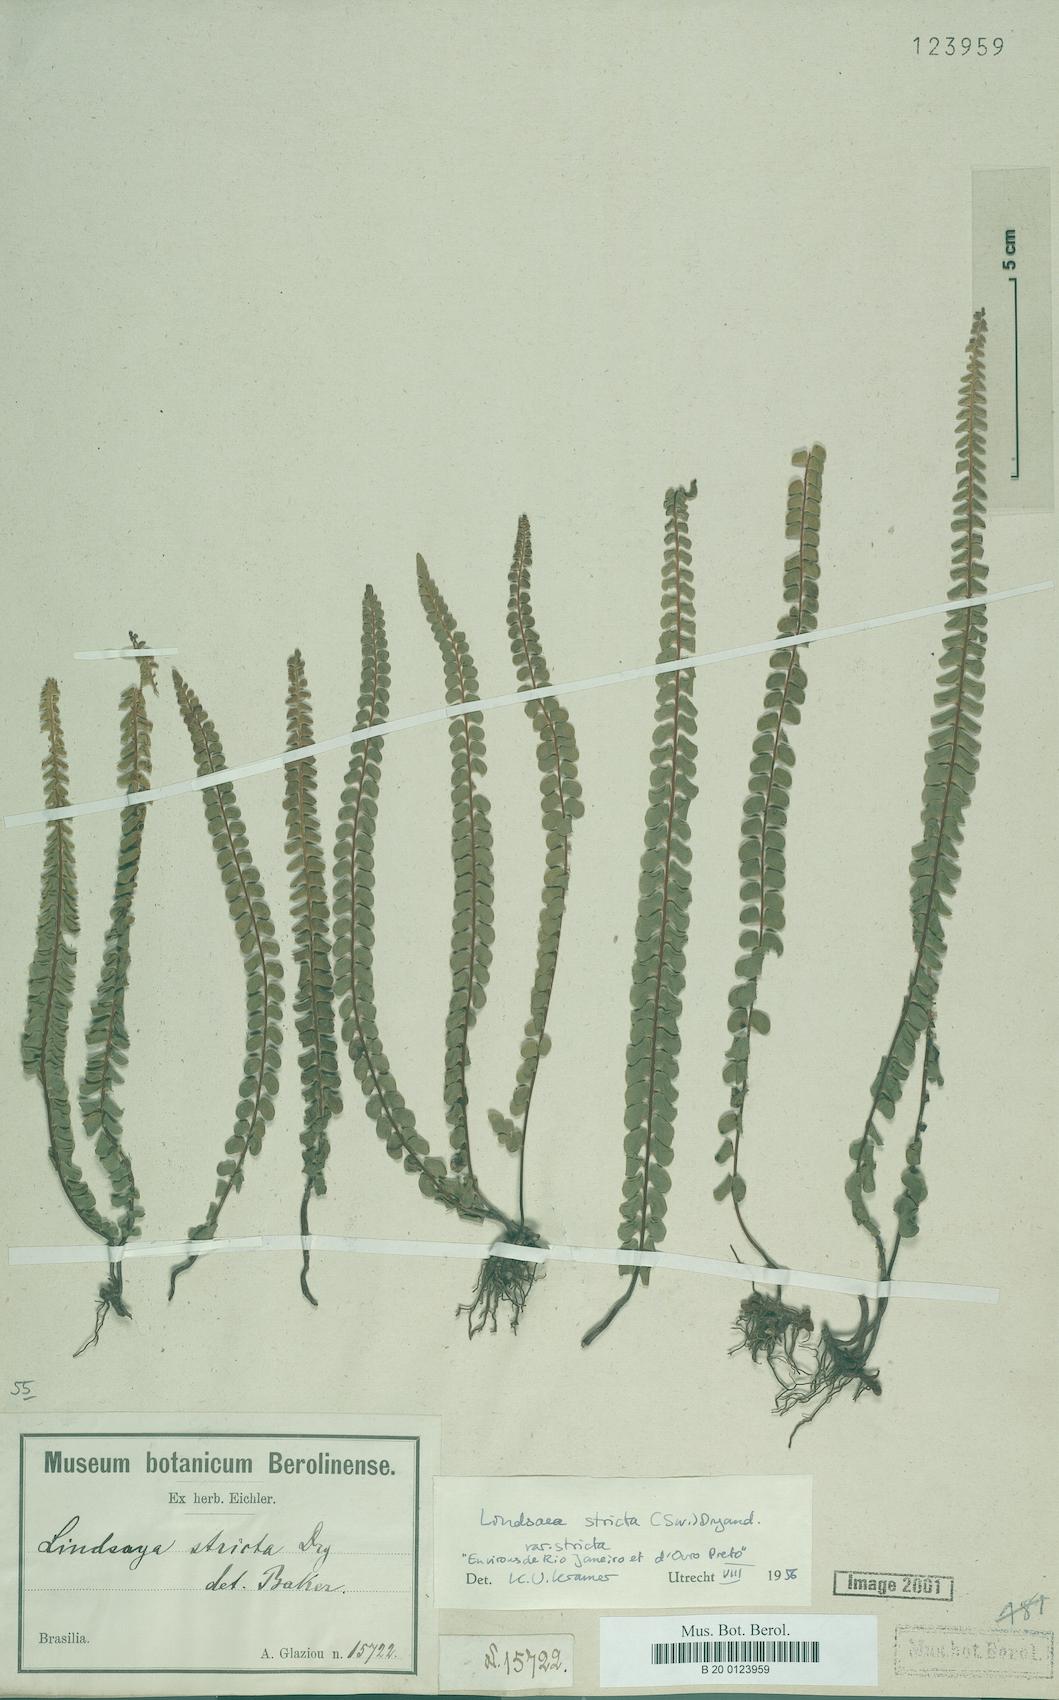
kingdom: Plantae
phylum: Tracheophyta
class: Polypodiopsida
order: Polypodiales
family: Lindsaeaceae
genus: Lindsaea
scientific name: Lindsaea stricta
